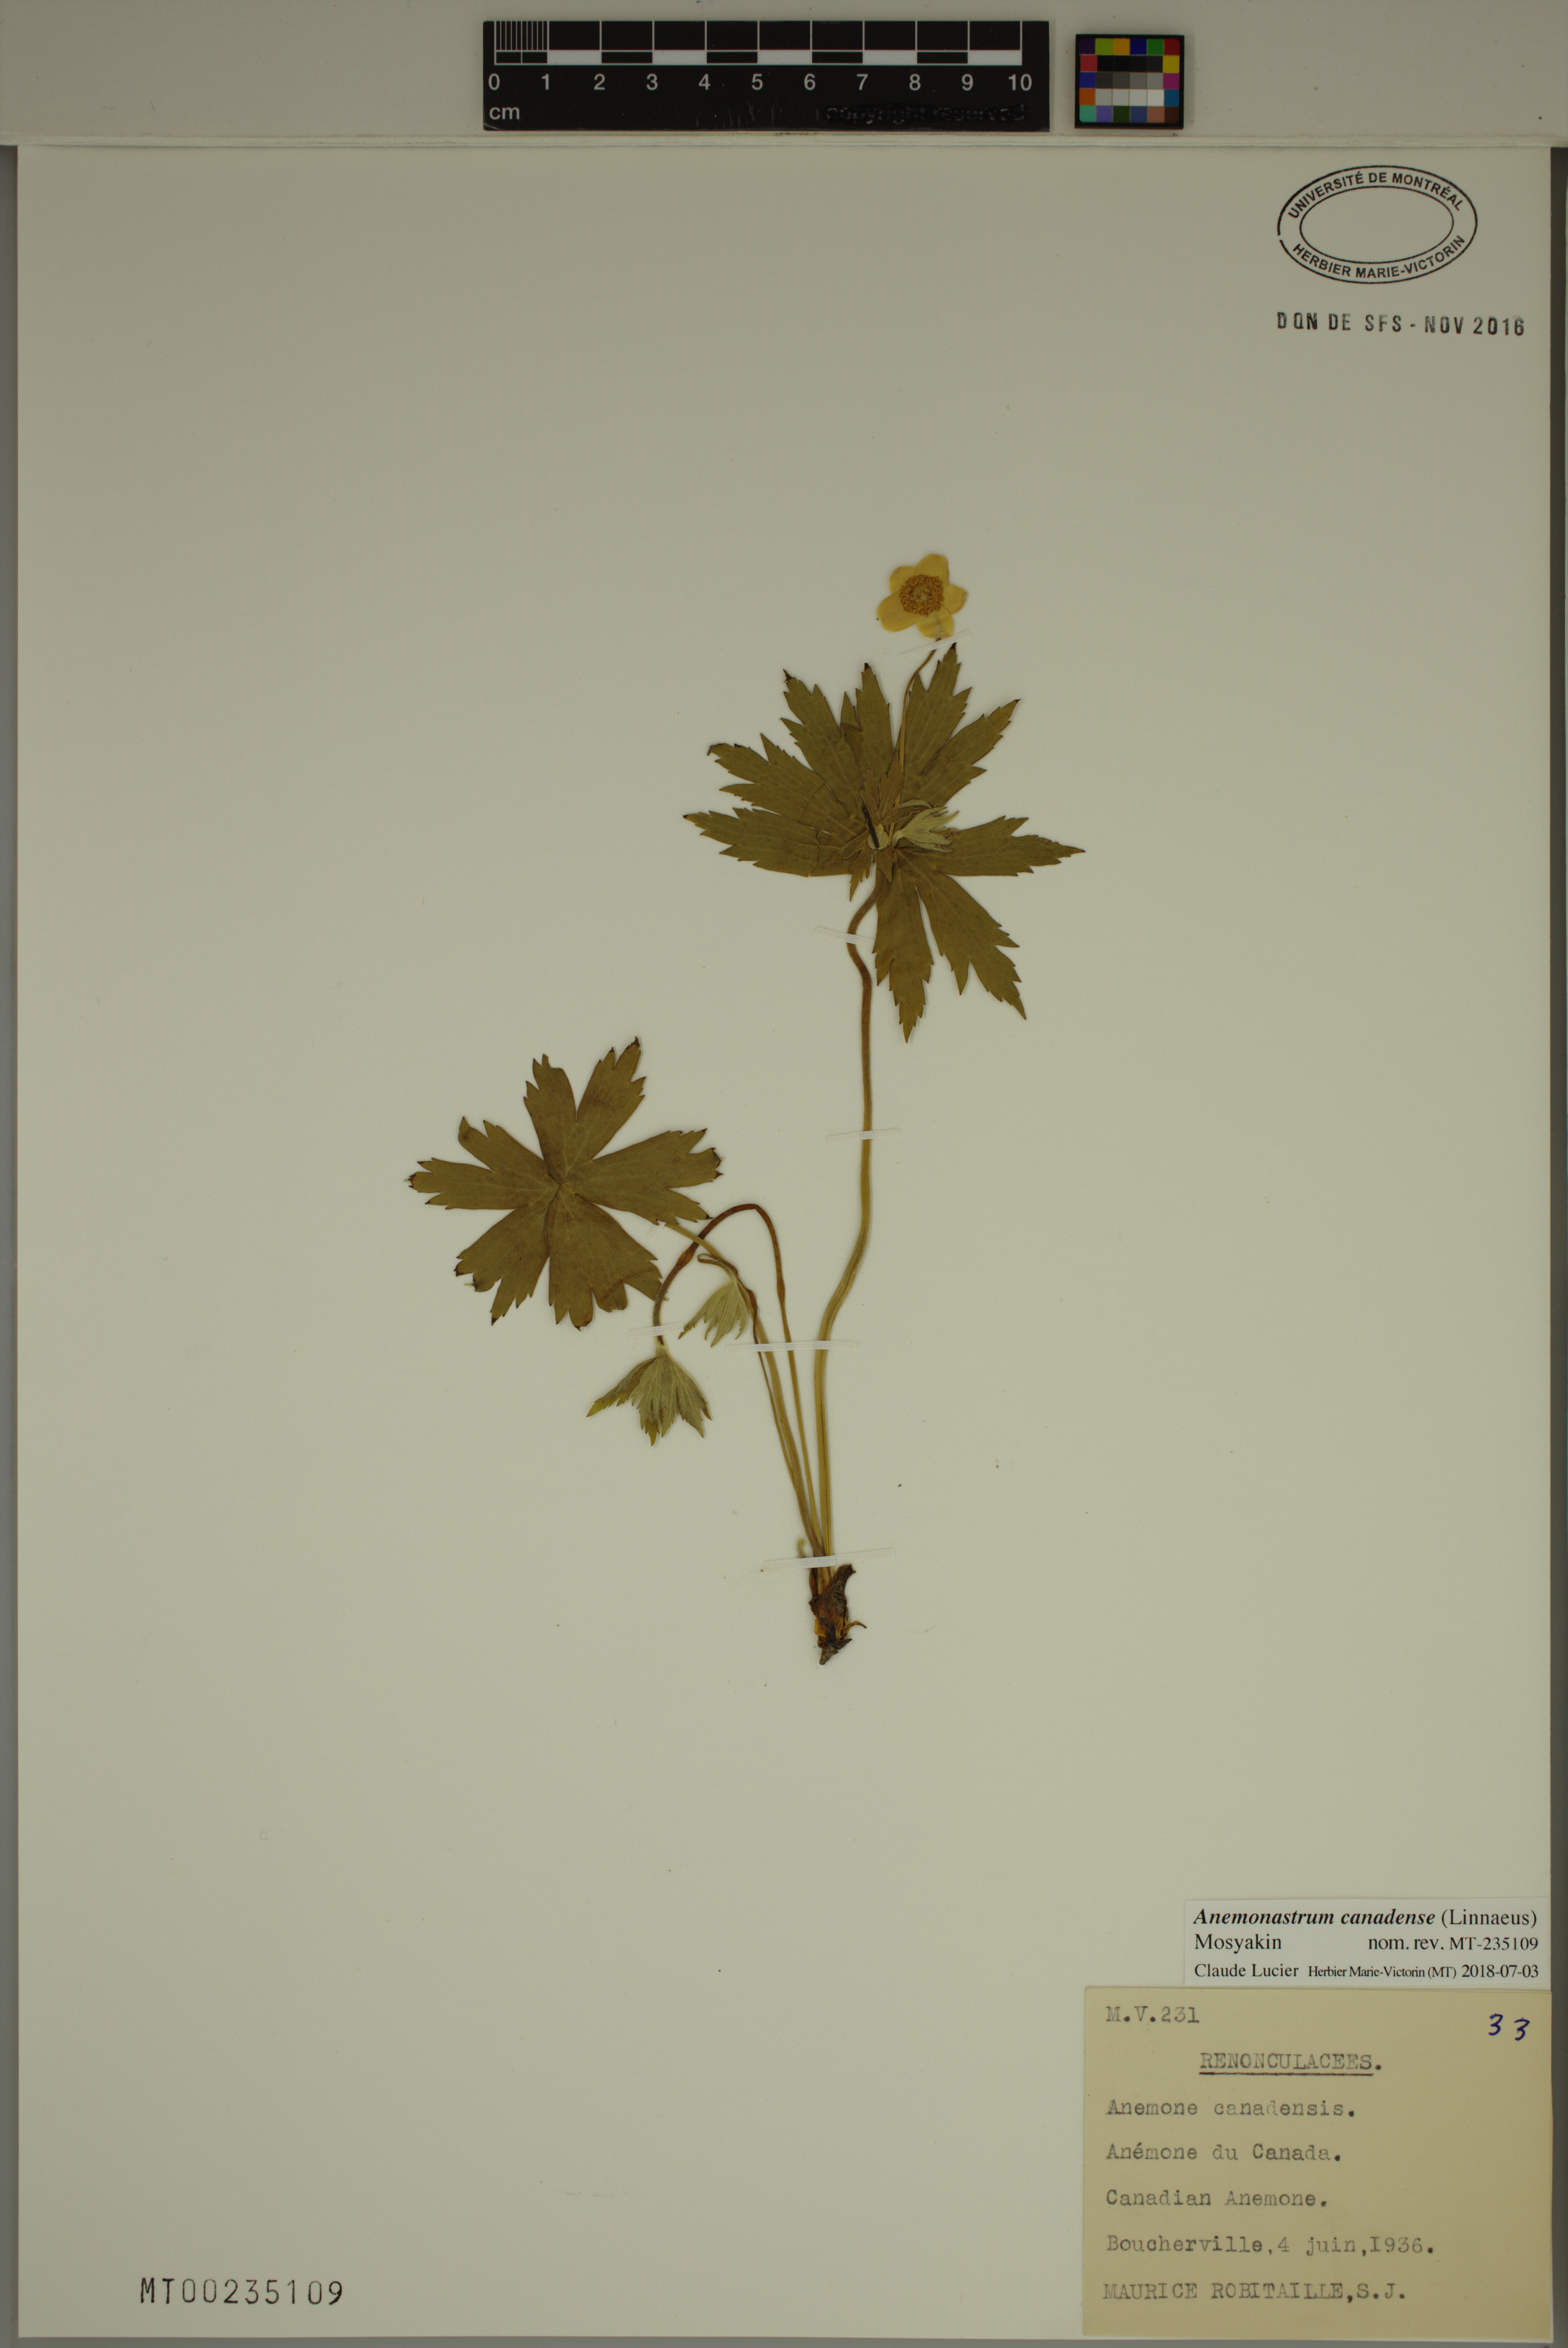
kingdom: Plantae
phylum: Tracheophyta
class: Magnoliopsida
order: Ranunculales
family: Ranunculaceae
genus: Anemonastrum
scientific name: Anemonastrum canadense
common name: Canada anemone
